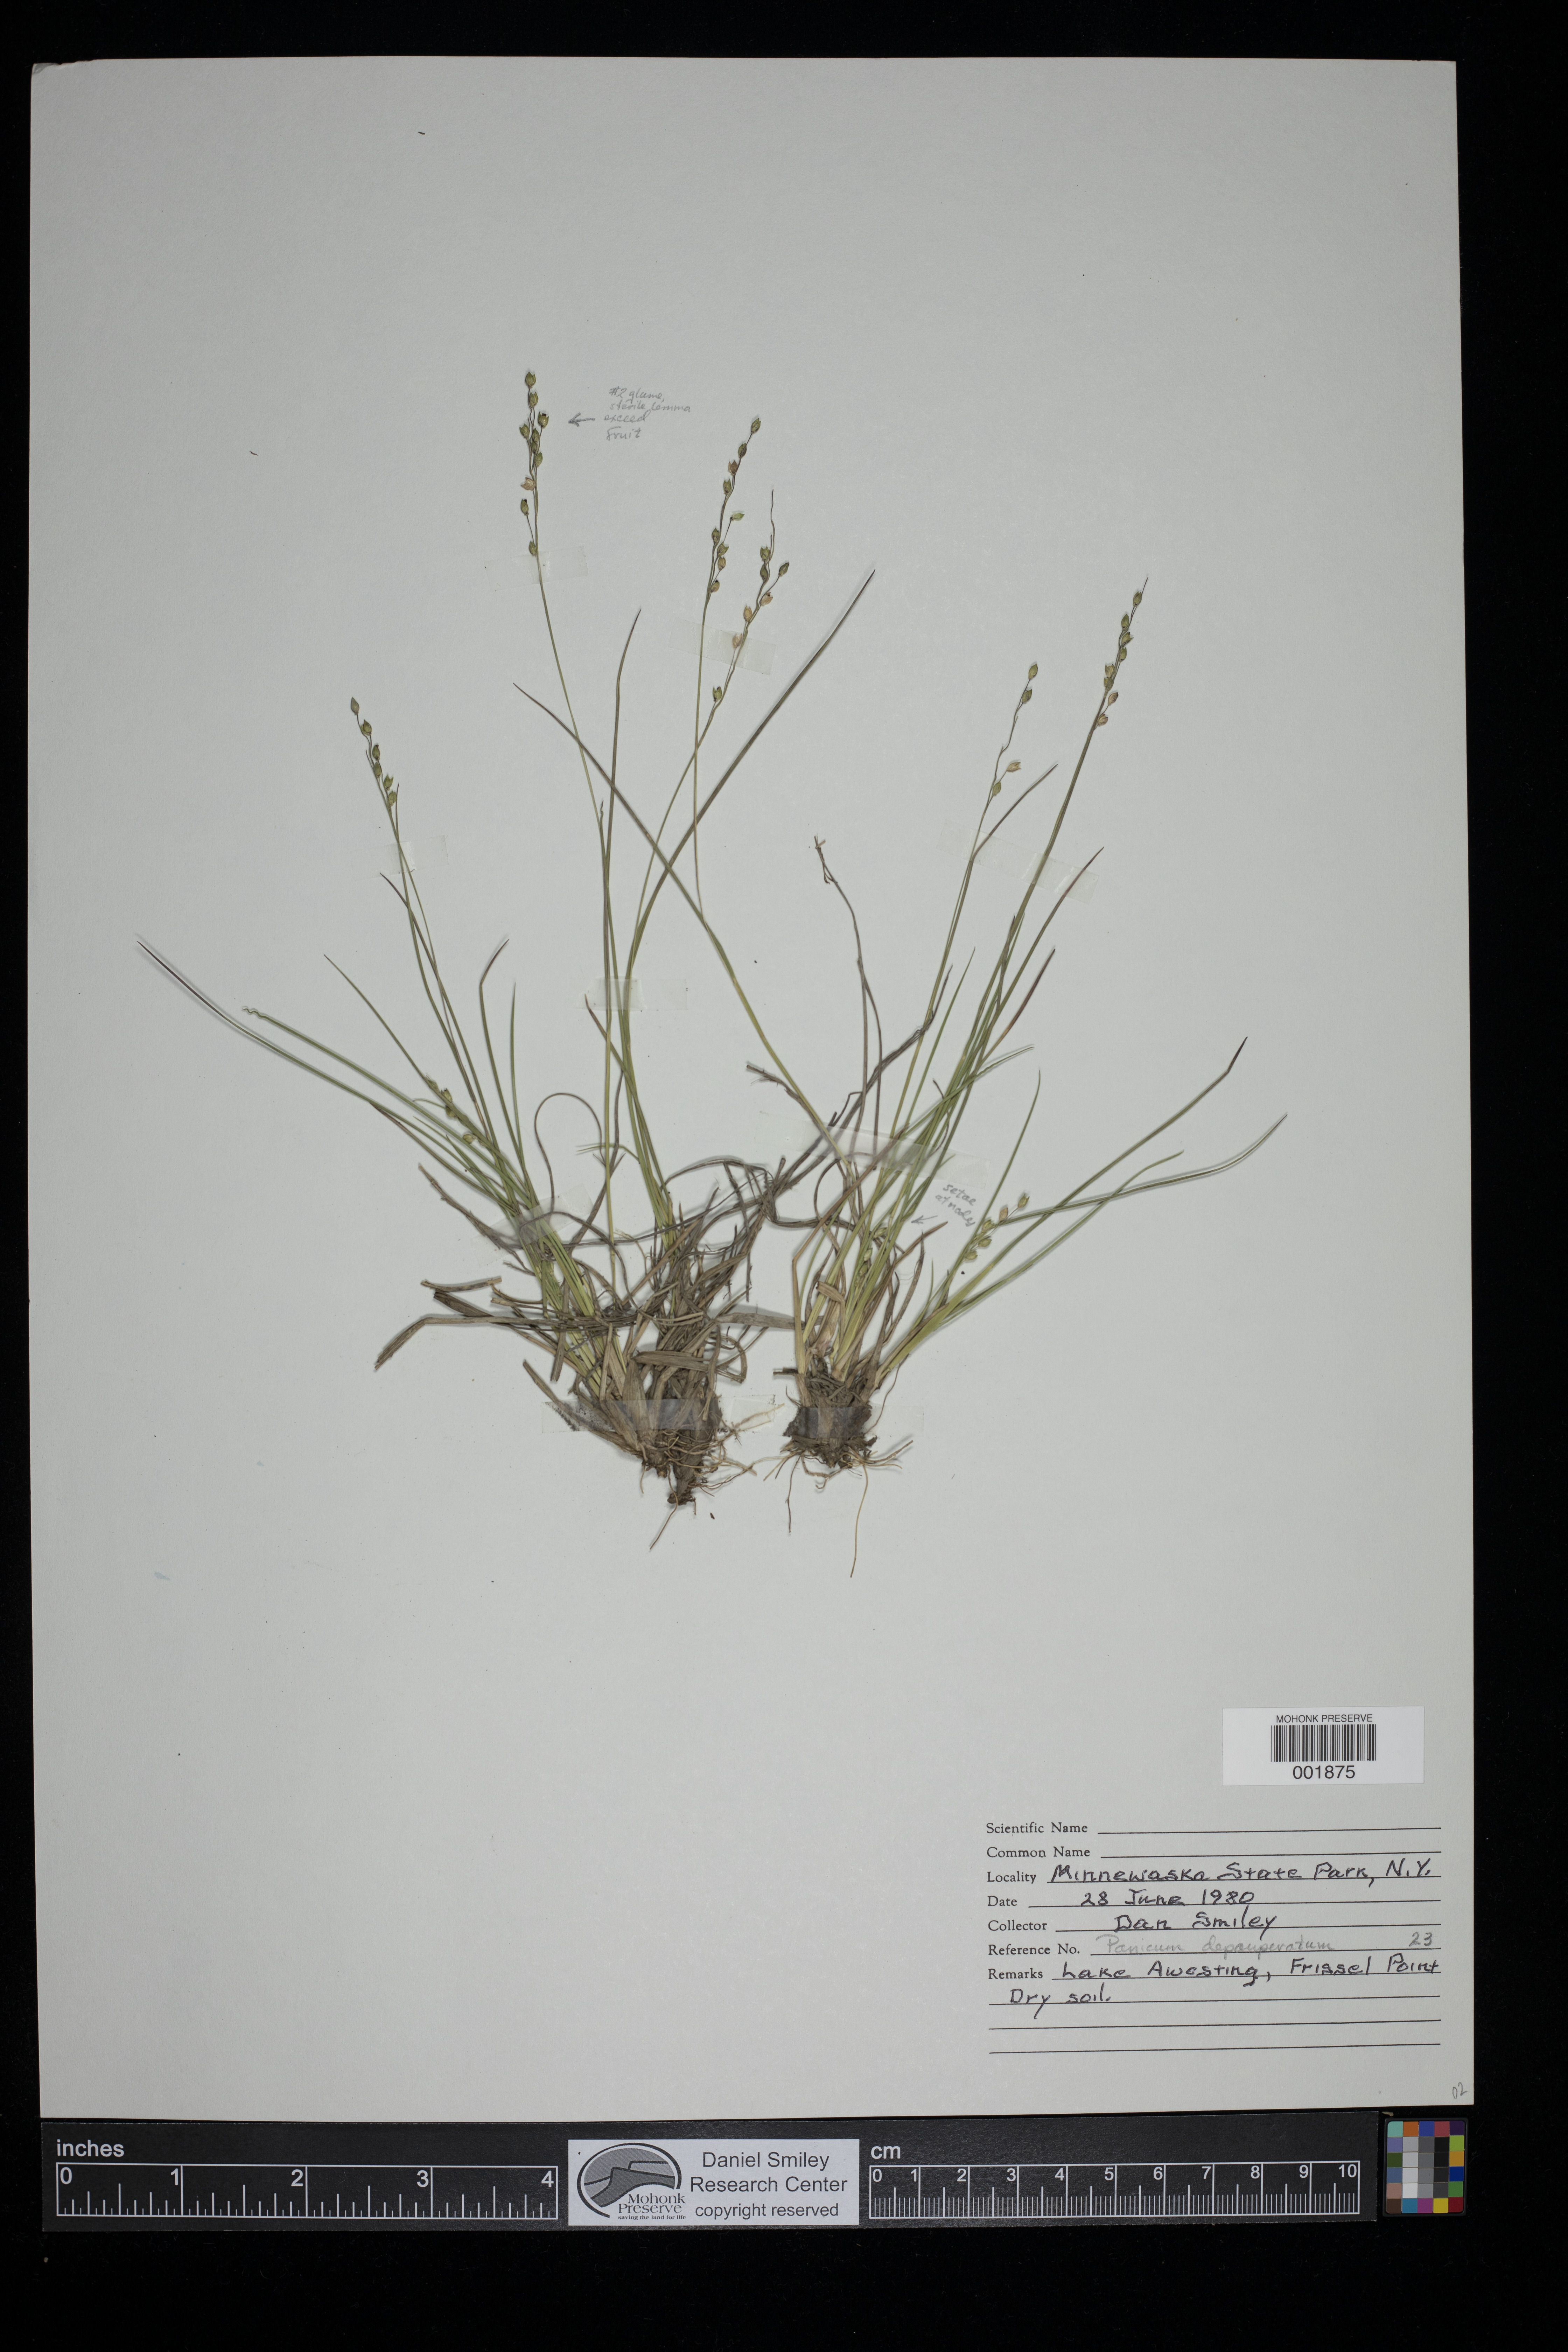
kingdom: Plantae
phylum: Tracheophyta
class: Liliopsida
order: Poales
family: Poaceae
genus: Dichanthelium
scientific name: Dichanthelium depauperatum
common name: Depauperate panicgrass
